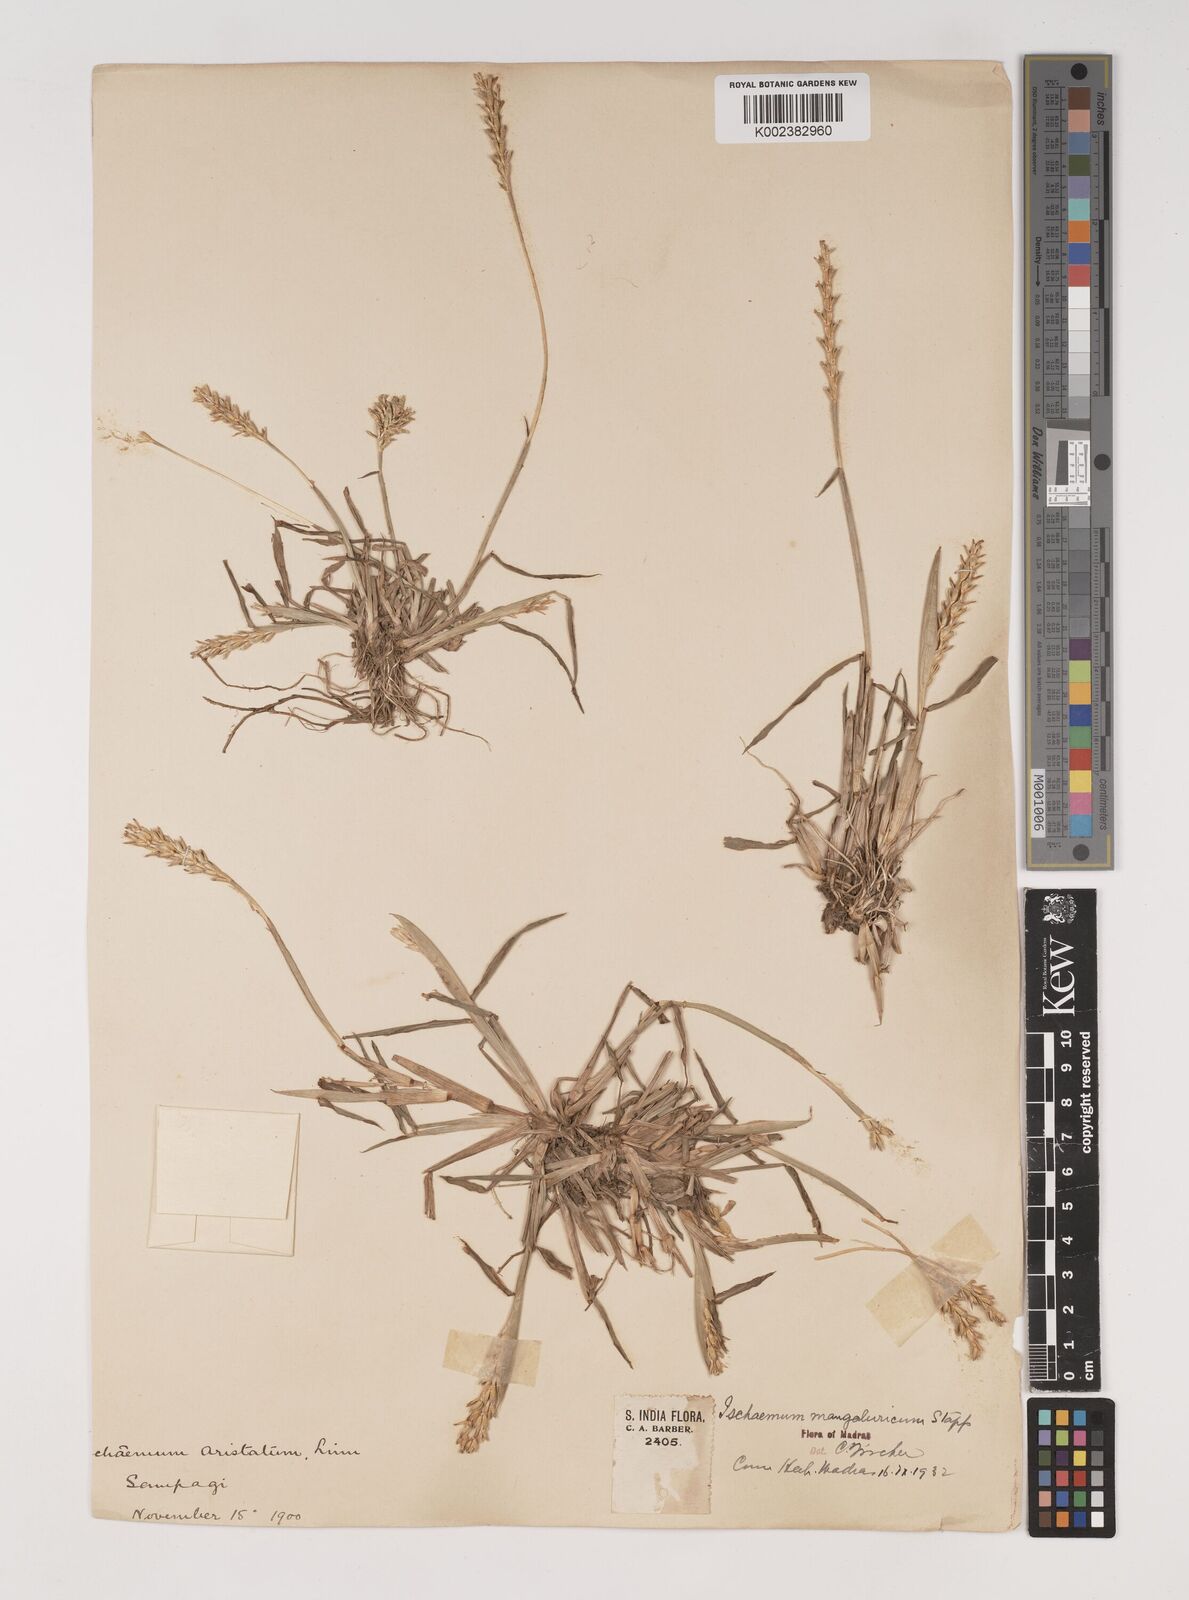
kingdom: Plantae
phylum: Tracheophyta
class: Liliopsida
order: Poales
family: Poaceae
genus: Ischaemum
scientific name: Ischaemum barbatum
